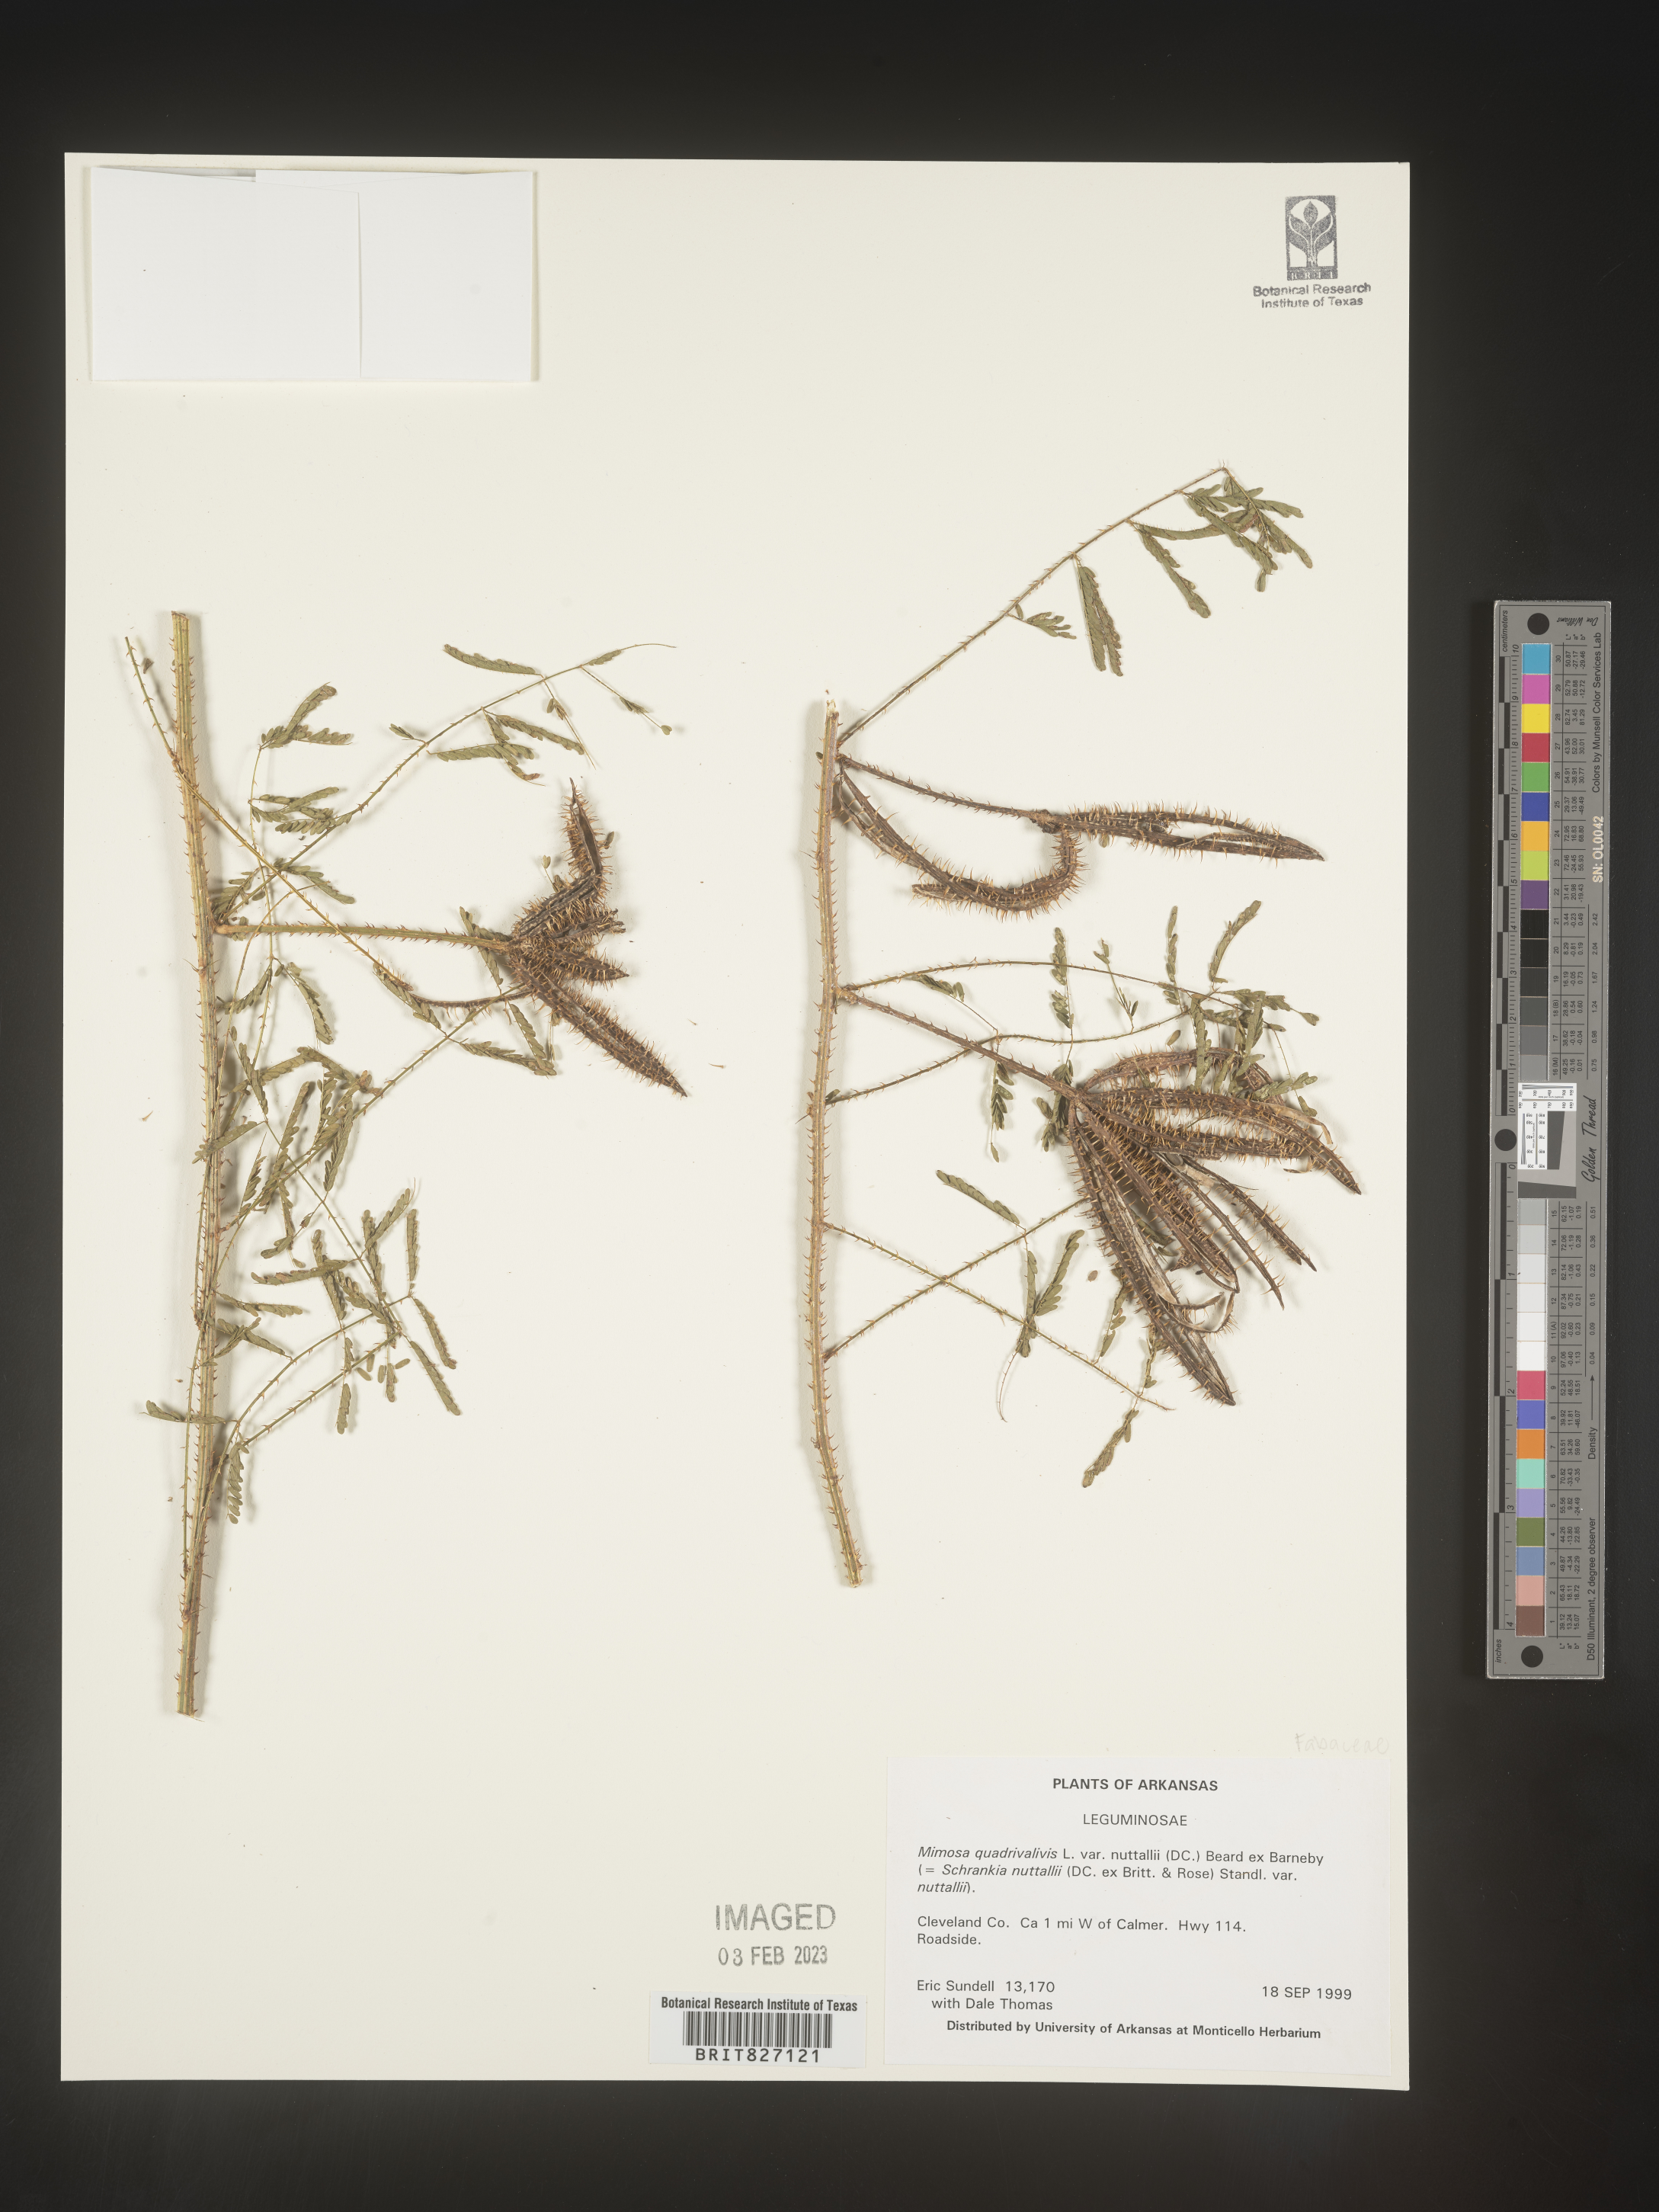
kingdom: Plantae
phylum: Tracheophyta
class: Magnoliopsida
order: Fabales
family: Fabaceae
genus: Mimosa
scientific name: Mimosa quadrivalvis
